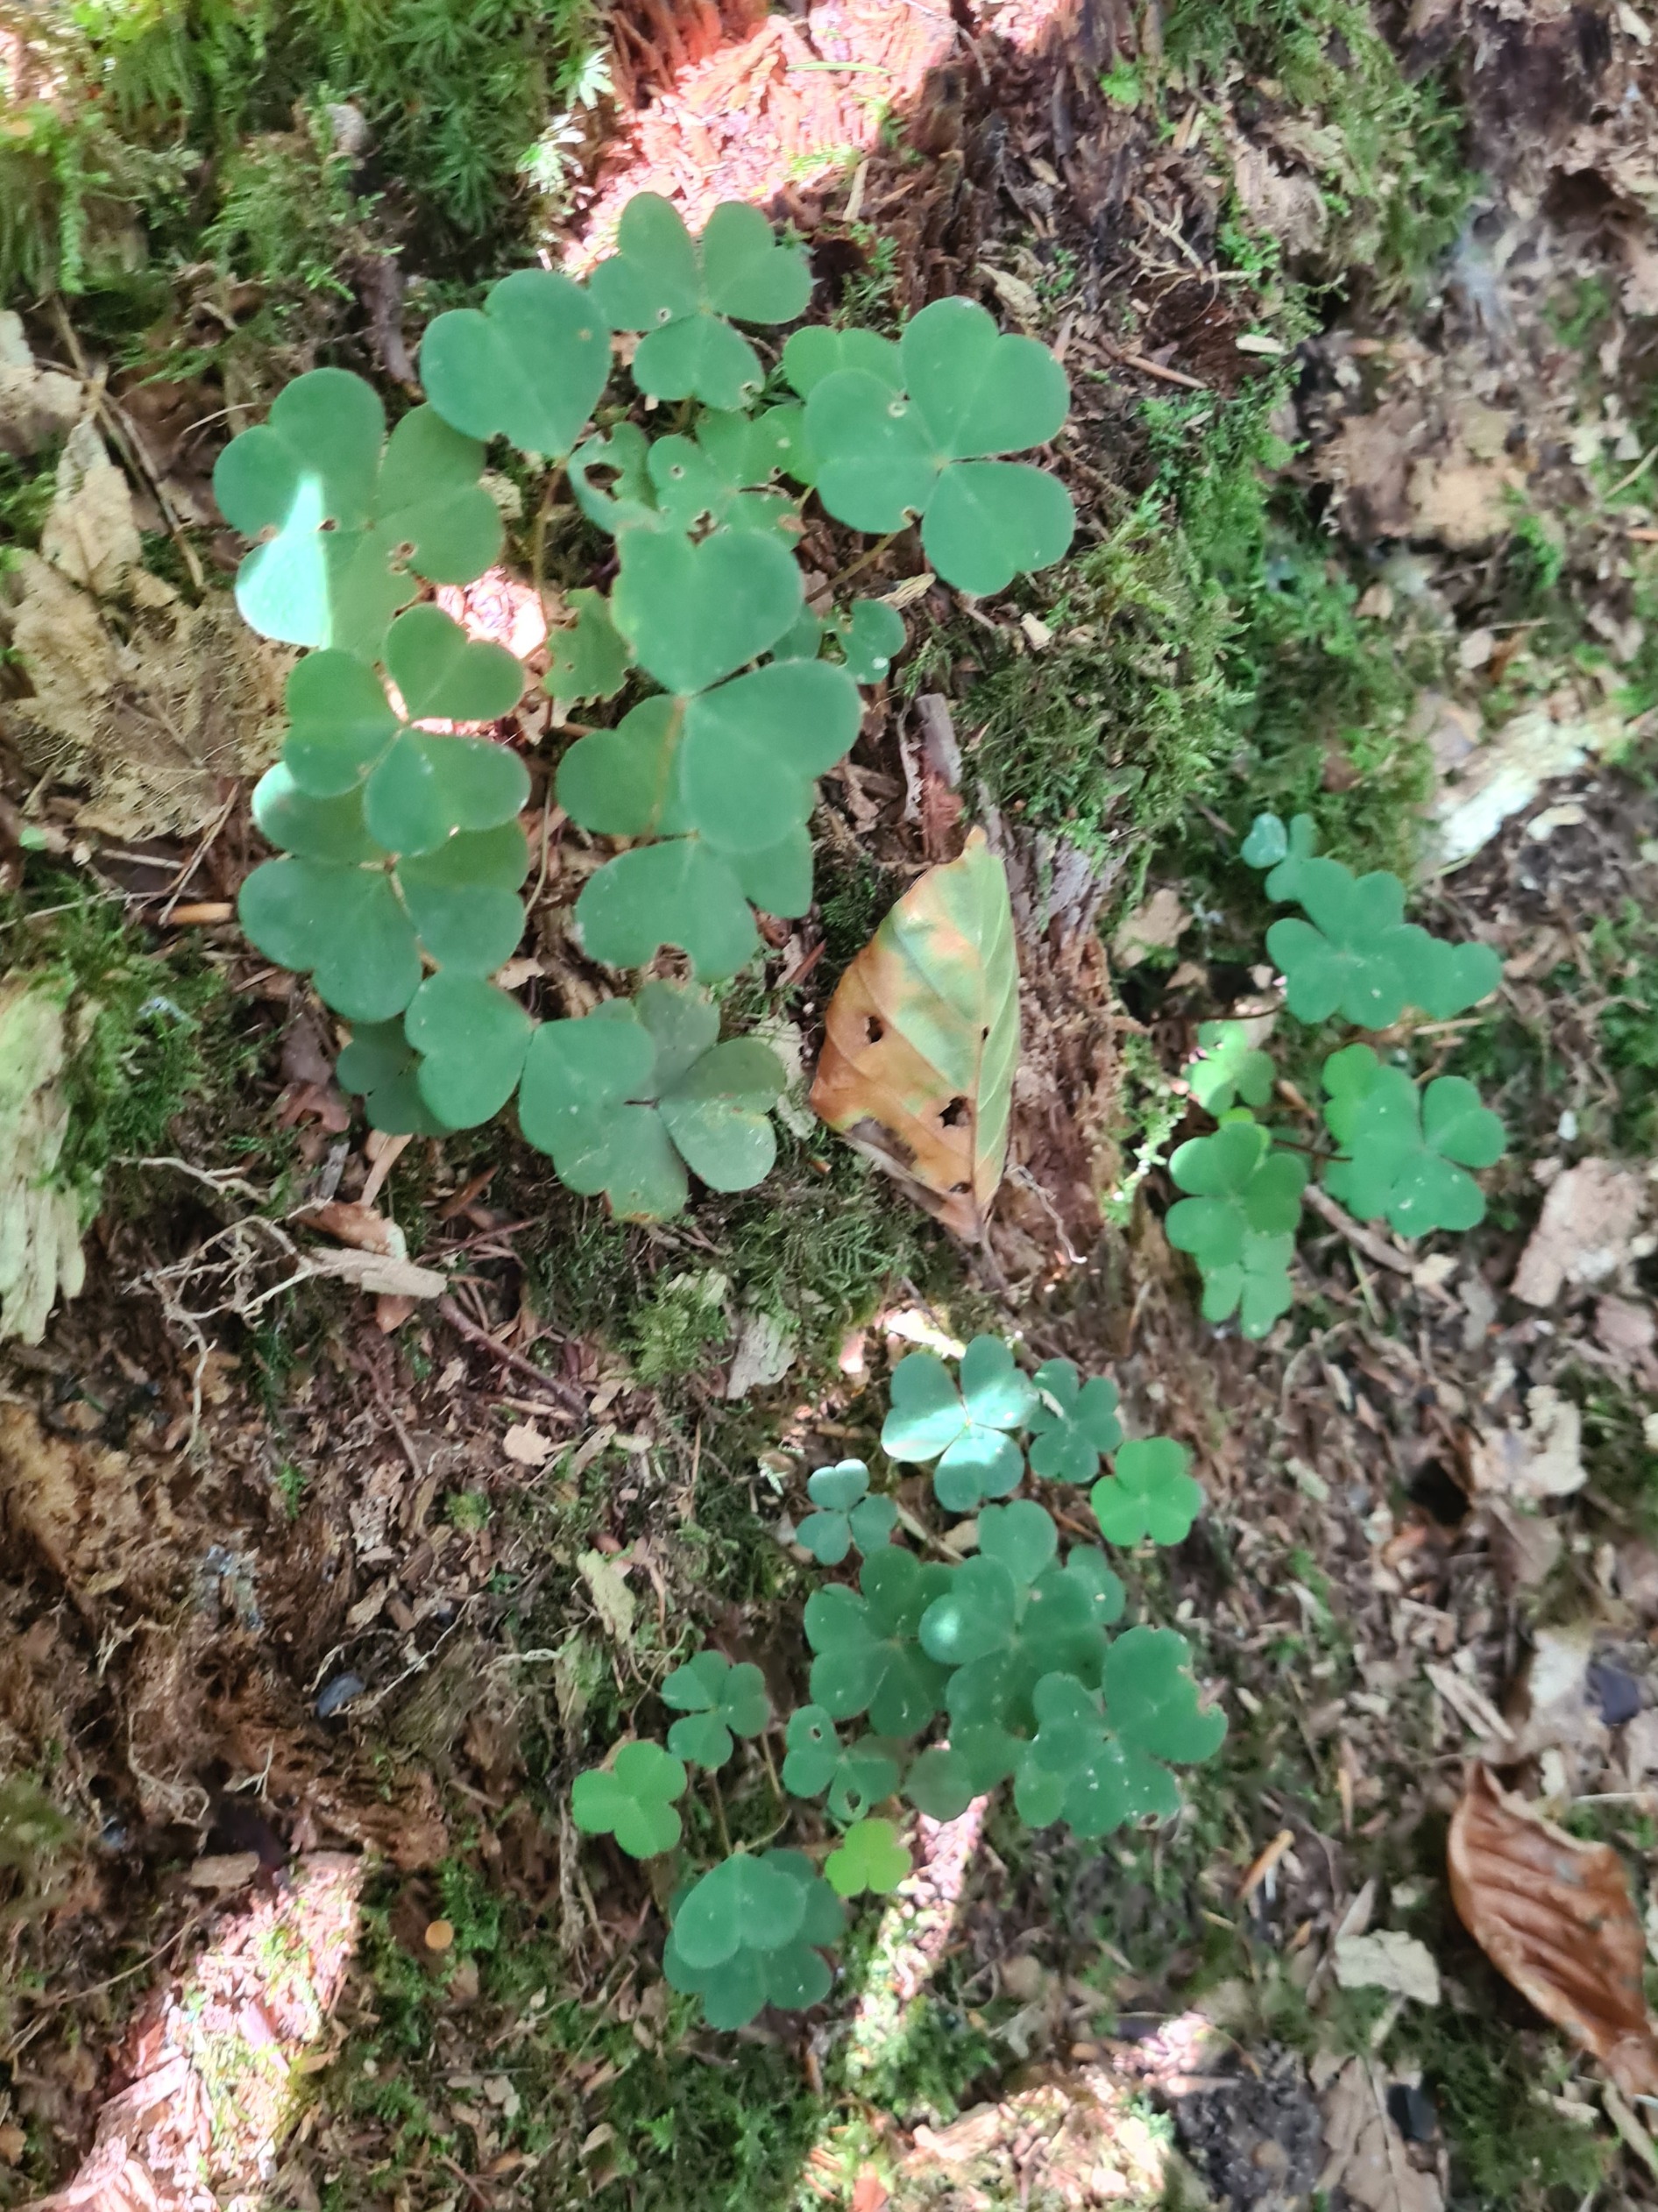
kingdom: Plantae
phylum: Tracheophyta
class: Magnoliopsida
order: Oxalidales
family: Oxalidaceae
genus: Oxalis
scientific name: Oxalis acetosella
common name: Skovsyre
